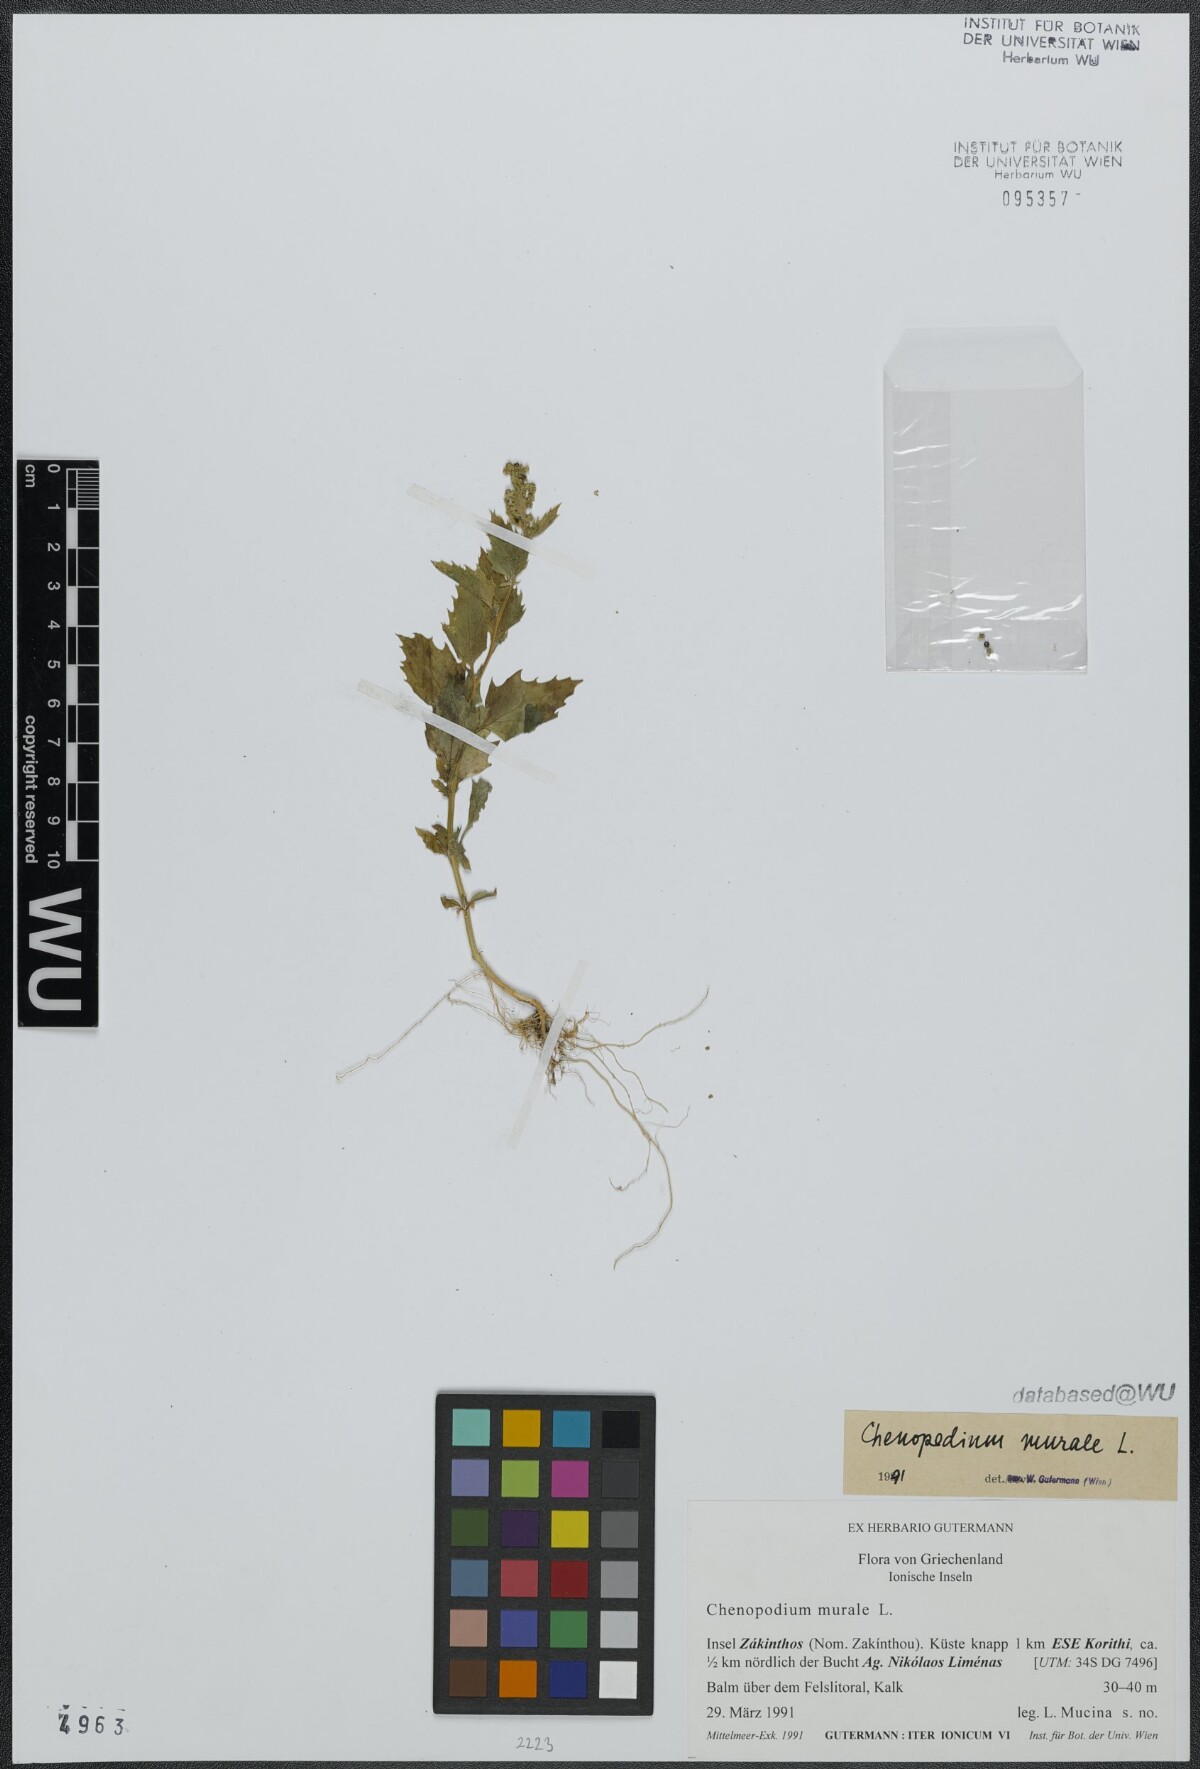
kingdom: Plantae
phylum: Tracheophyta
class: Magnoliopsida
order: Caryophyllales
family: Amaranthaceae
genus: Chenopodiastrum
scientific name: Chenopodiastrum murale
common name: Sowbane
